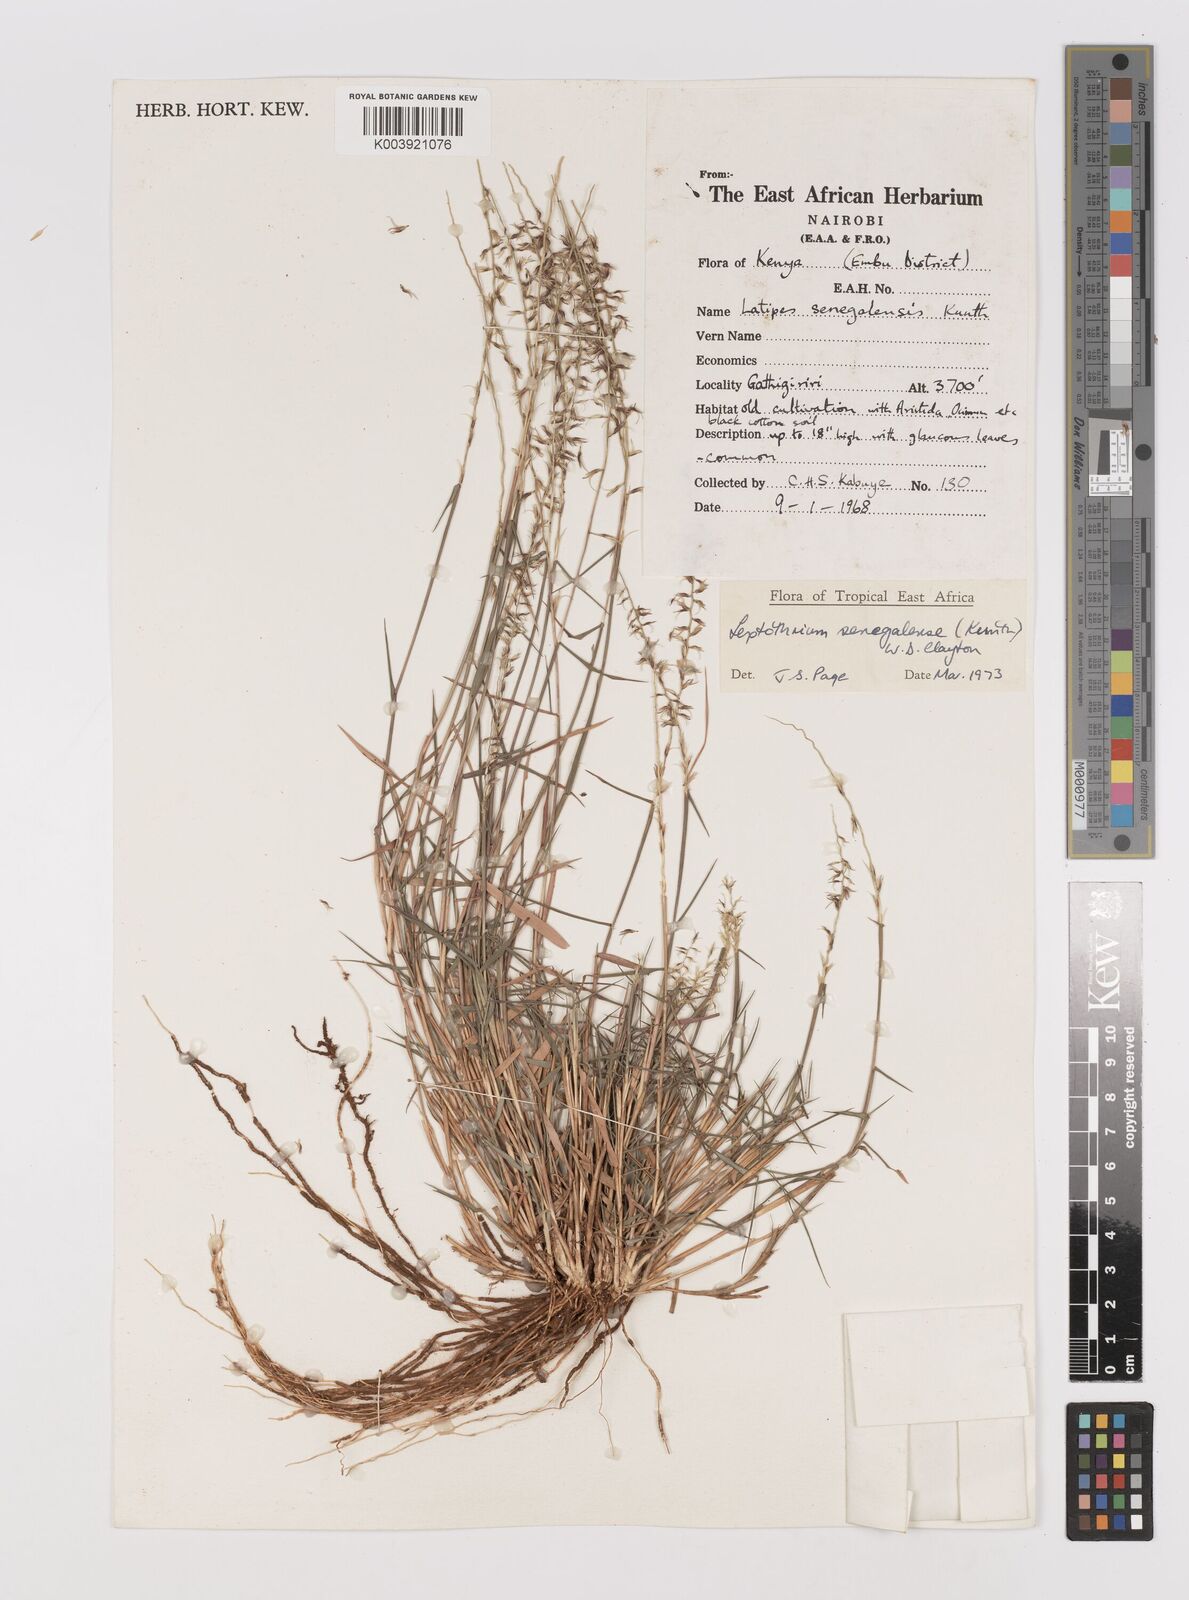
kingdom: Plantae
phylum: Tracheophyta
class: Liliopsida
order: Poales
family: Poaceae
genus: Leptothrium
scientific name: Leptothrium senegalense
